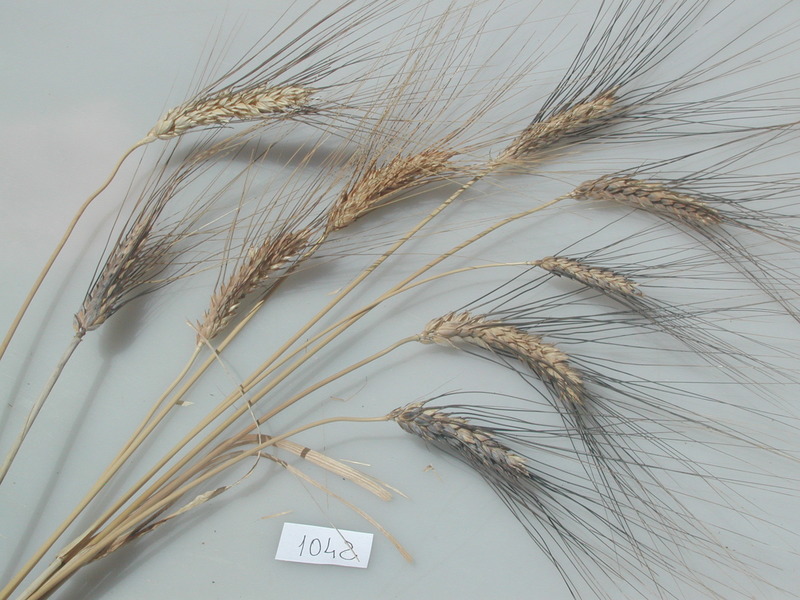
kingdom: Plantae
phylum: Tracheophyta
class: Liliopsida
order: Poales
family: Poaceae
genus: Triticum
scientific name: Triticum turgidum
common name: Wheat
